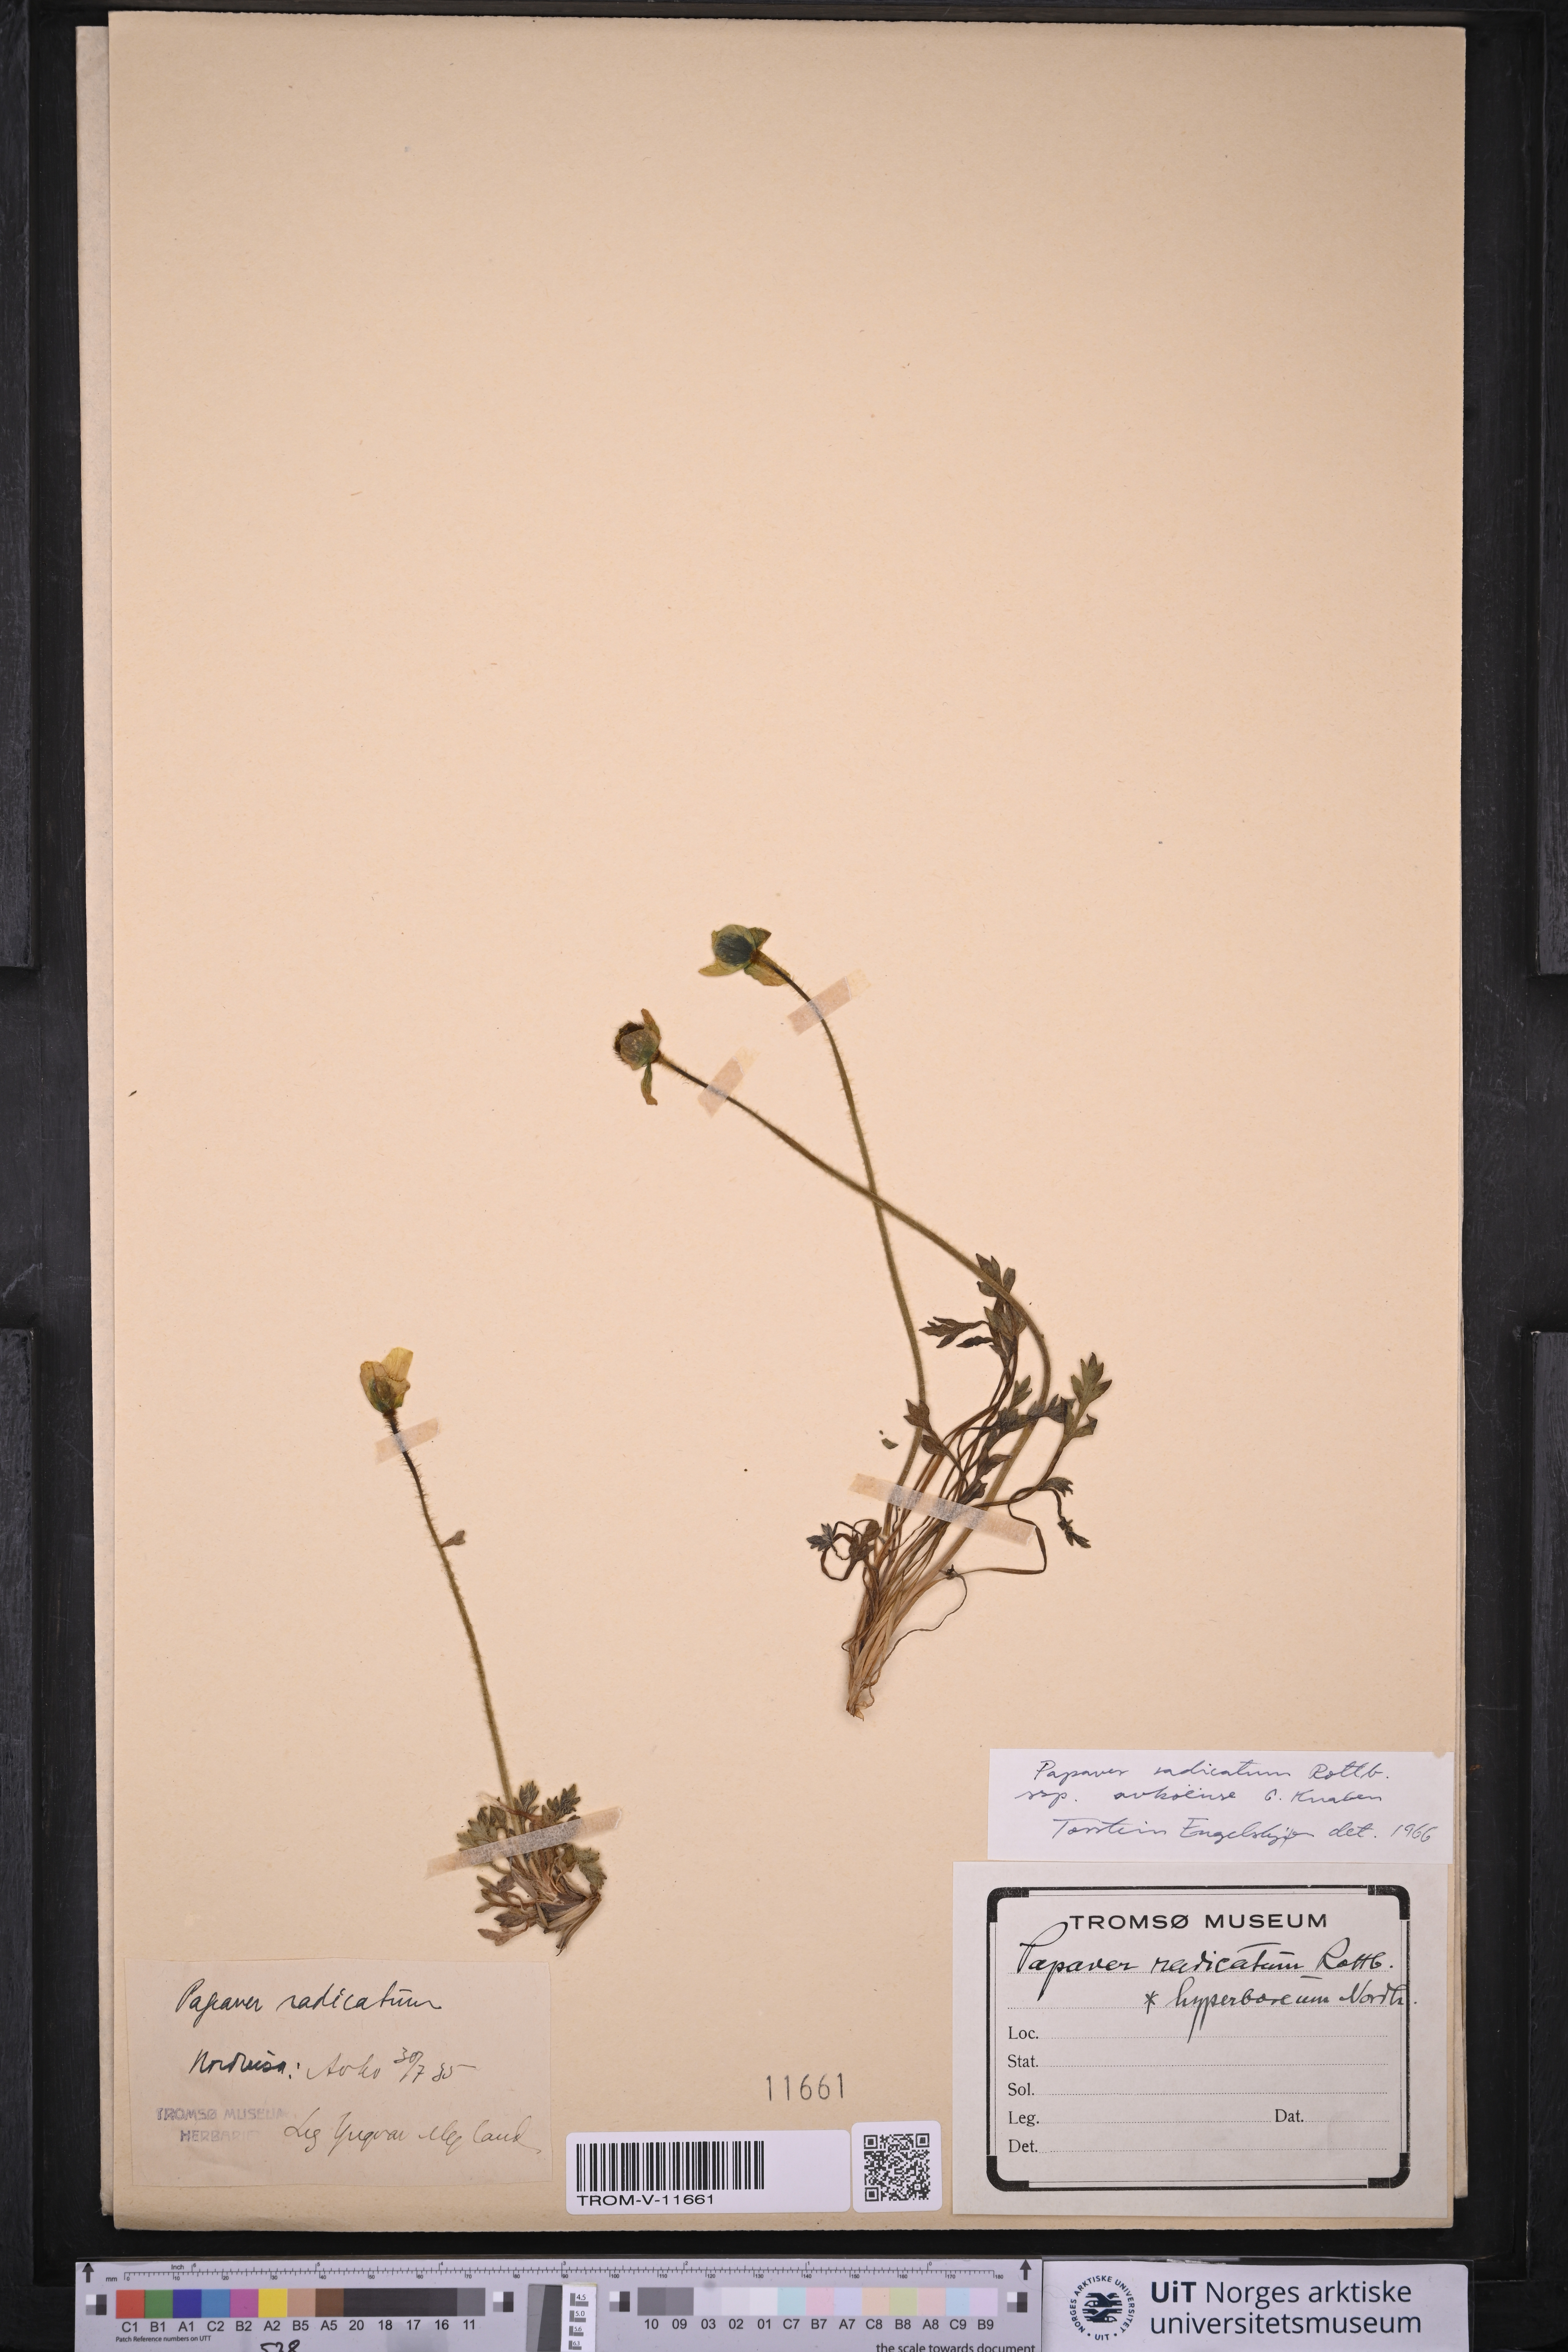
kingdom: Plantae
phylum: Tracheophyta
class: Magnoliopsida
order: Ranunculales
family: Papaveraceae
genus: Papaver
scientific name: Papaver radicatum
